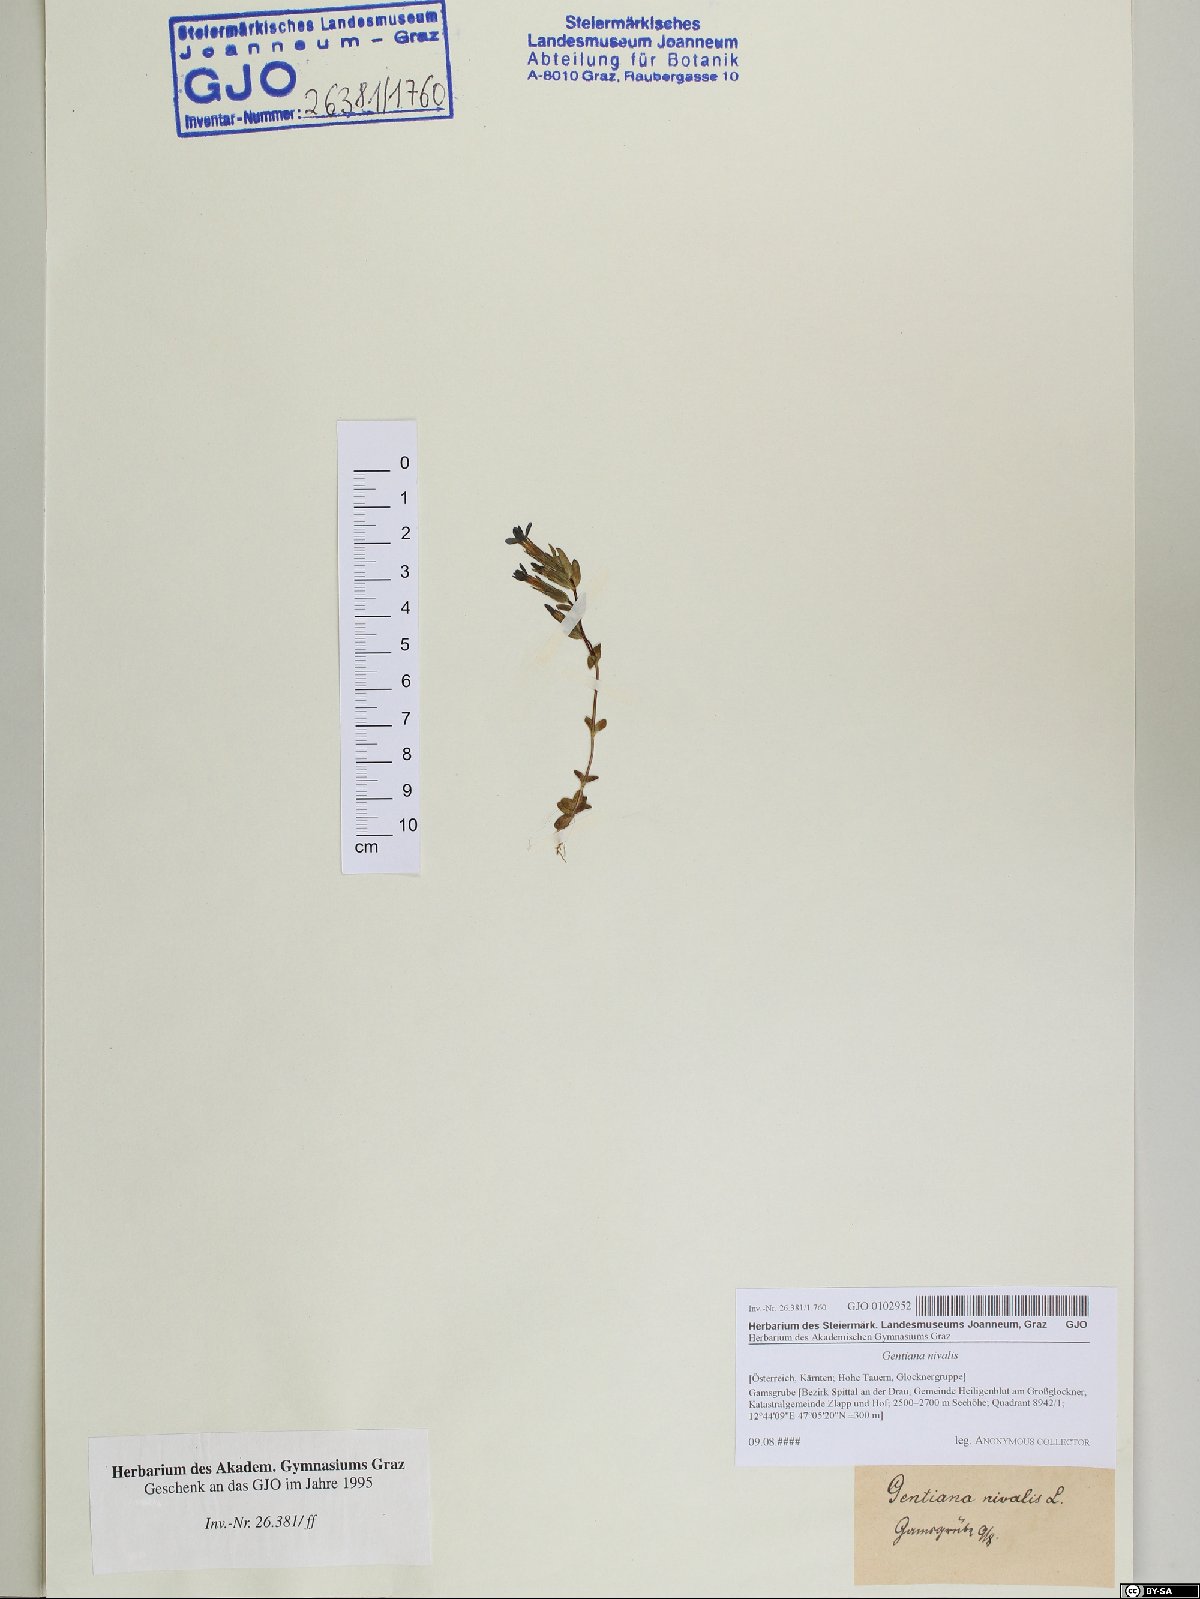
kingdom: Plantae
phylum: Tracheophyta
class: Magnoliopsida
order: Gentianales
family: Gentianaceae
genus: Gentiana
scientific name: Gentiana nivalis
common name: Alpine gentian
